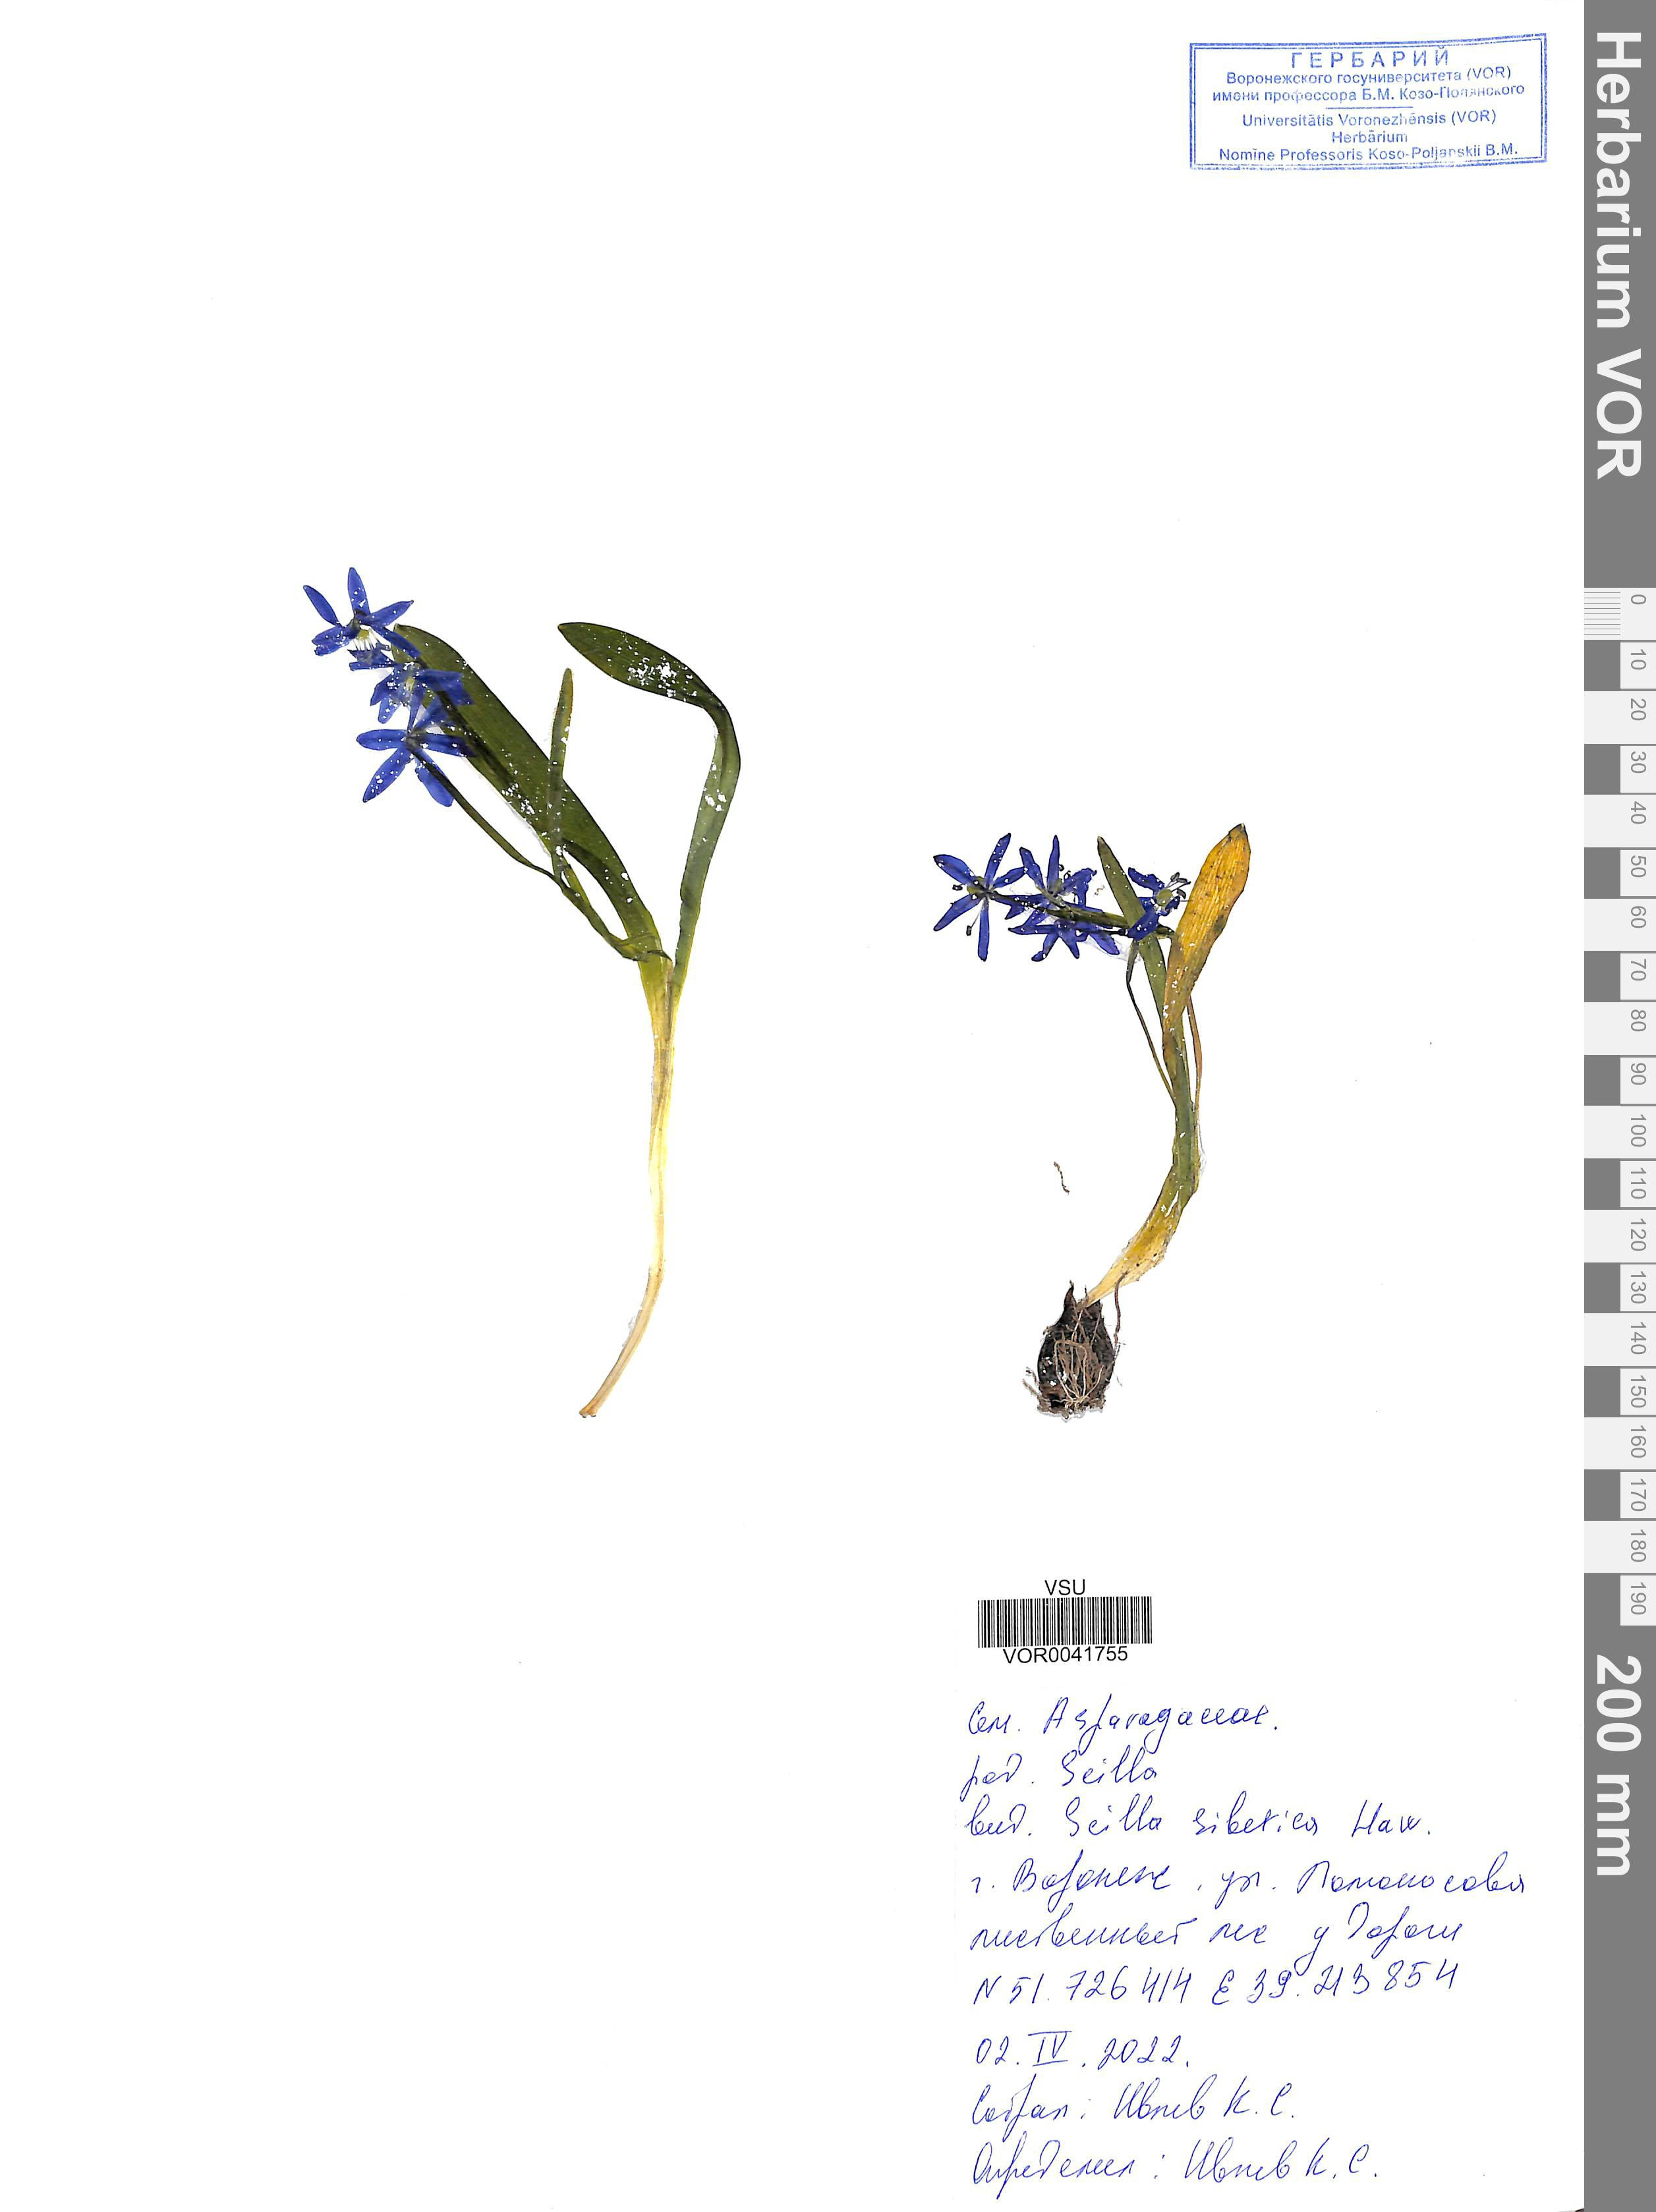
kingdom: Plantae
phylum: Tracheophyta
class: Liliopsida
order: Asparagales
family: Asparagaceae
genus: Scilla
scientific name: Scilla siberica
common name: Siberian squill
